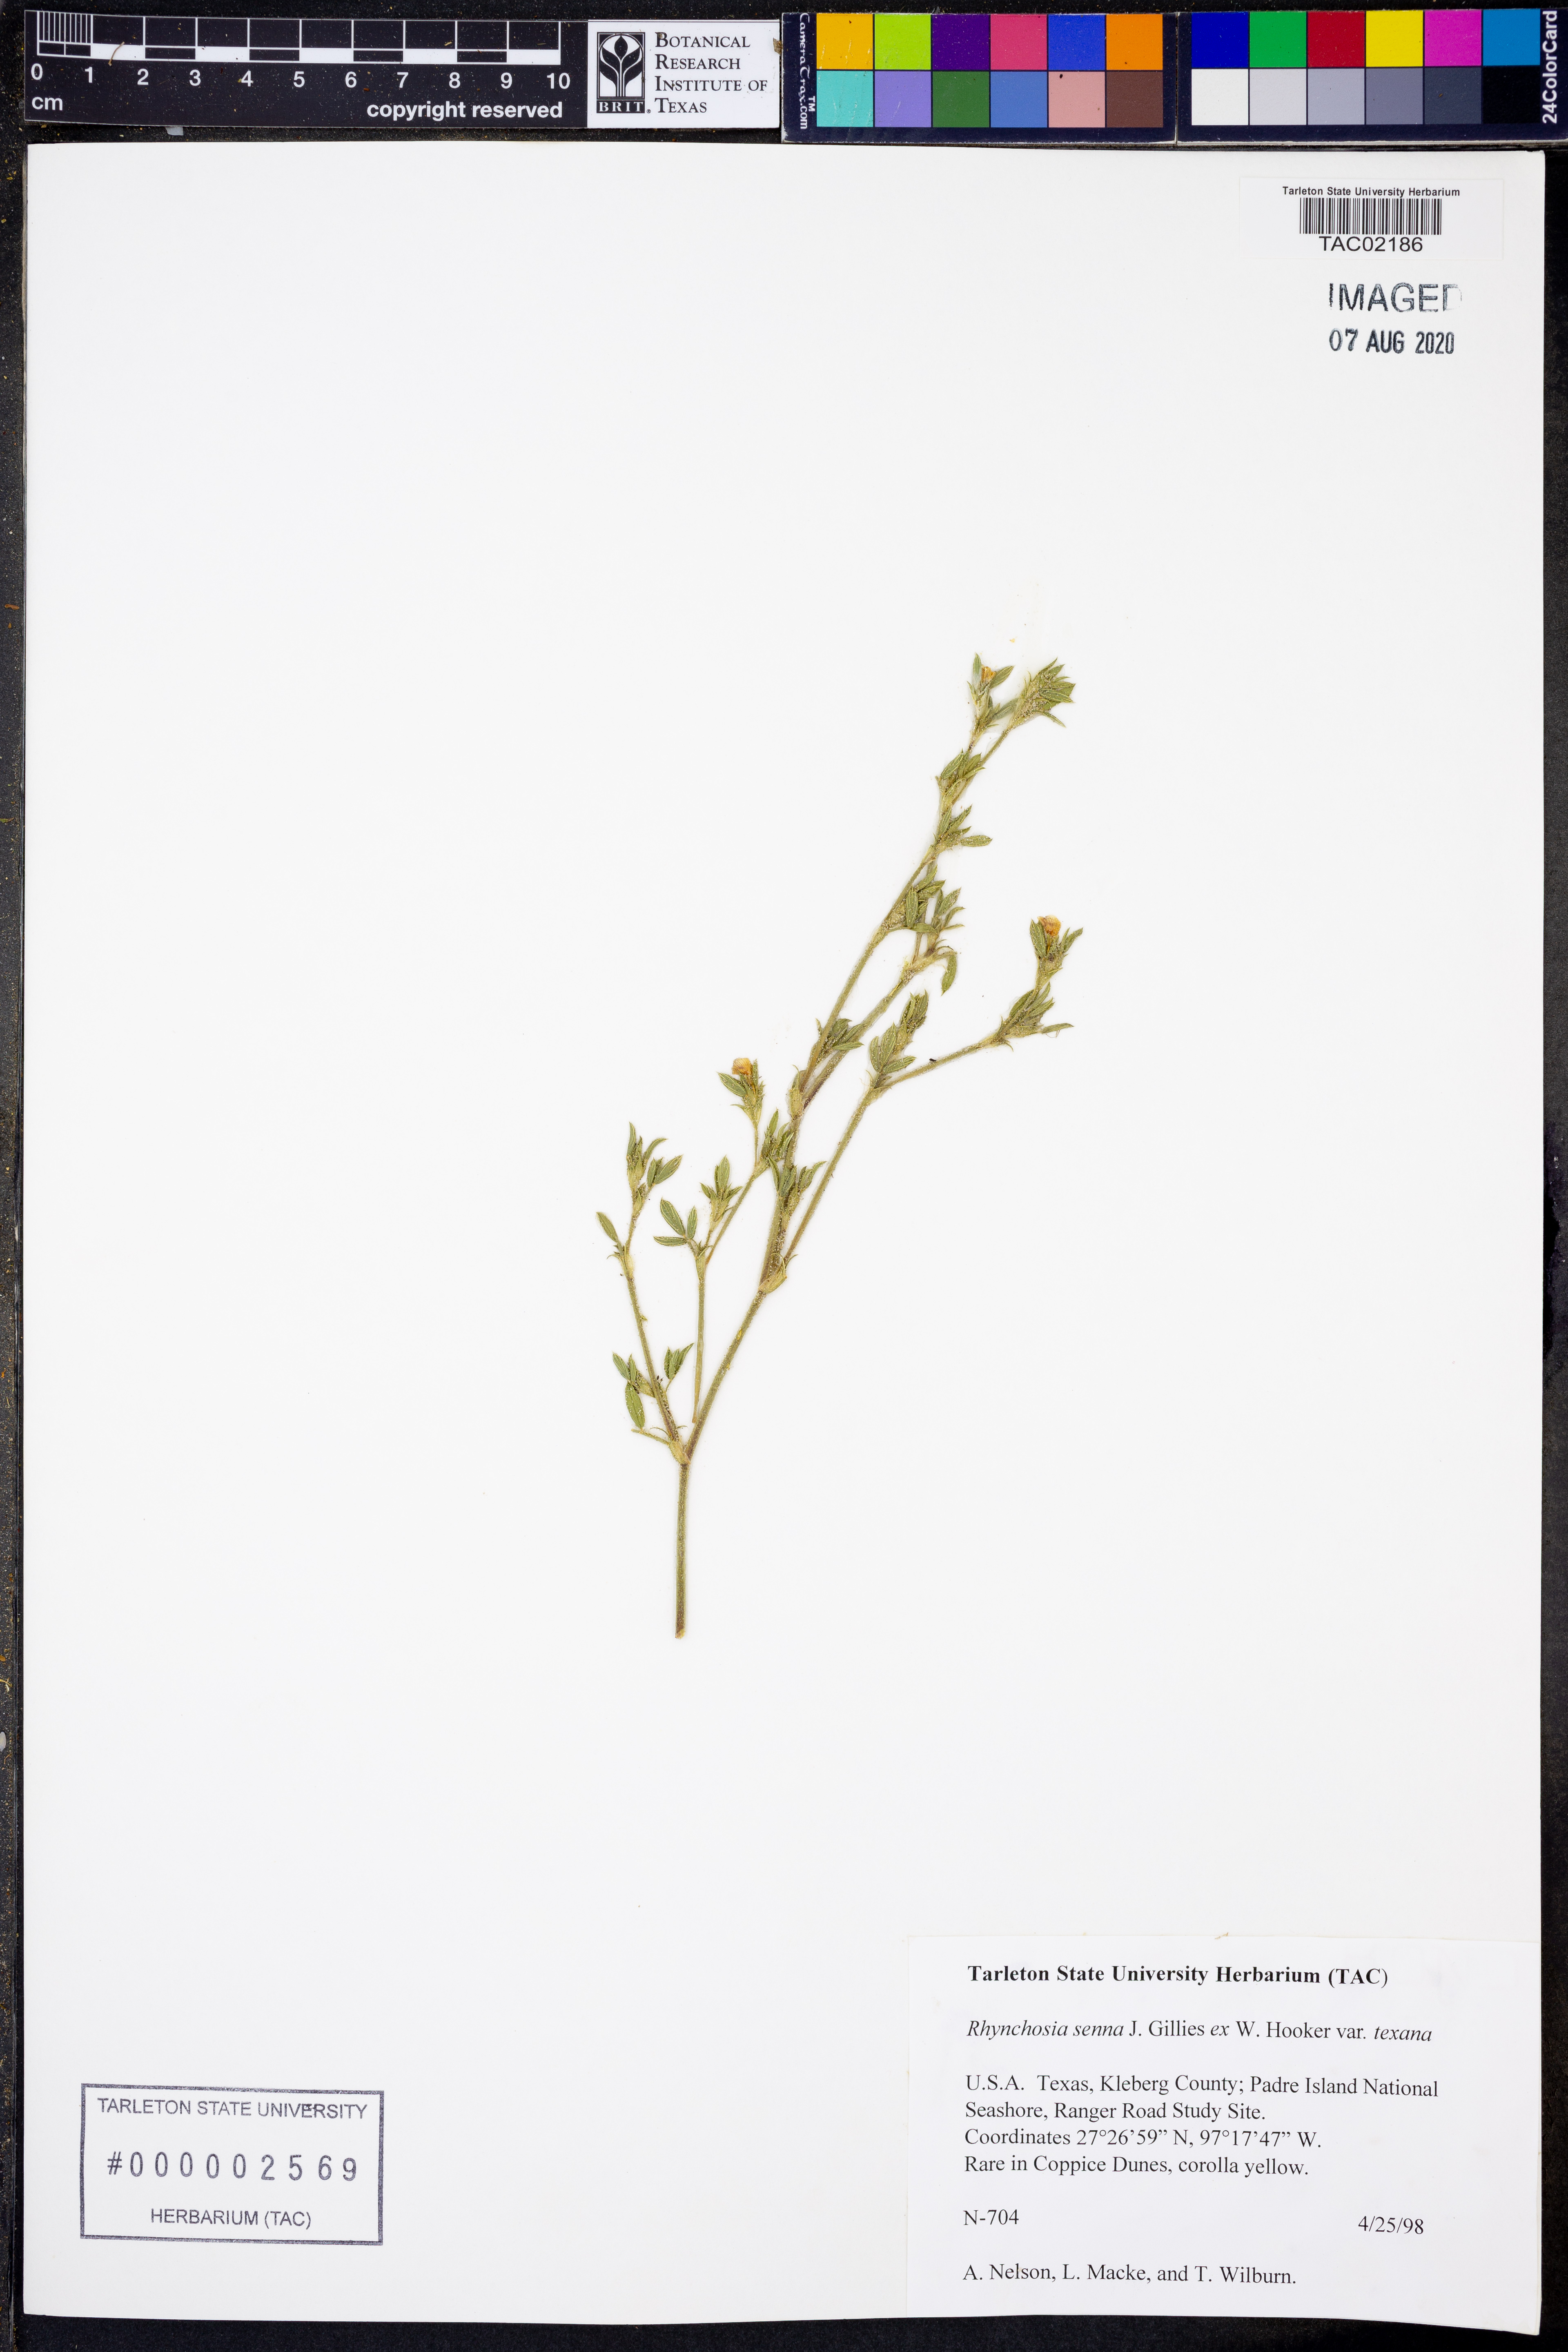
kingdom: Plantae
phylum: Tracheophyta
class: Magnoliopsida
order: Fabales
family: Fabaceae
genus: Rhynchosia
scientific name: Rhynchosia senna
